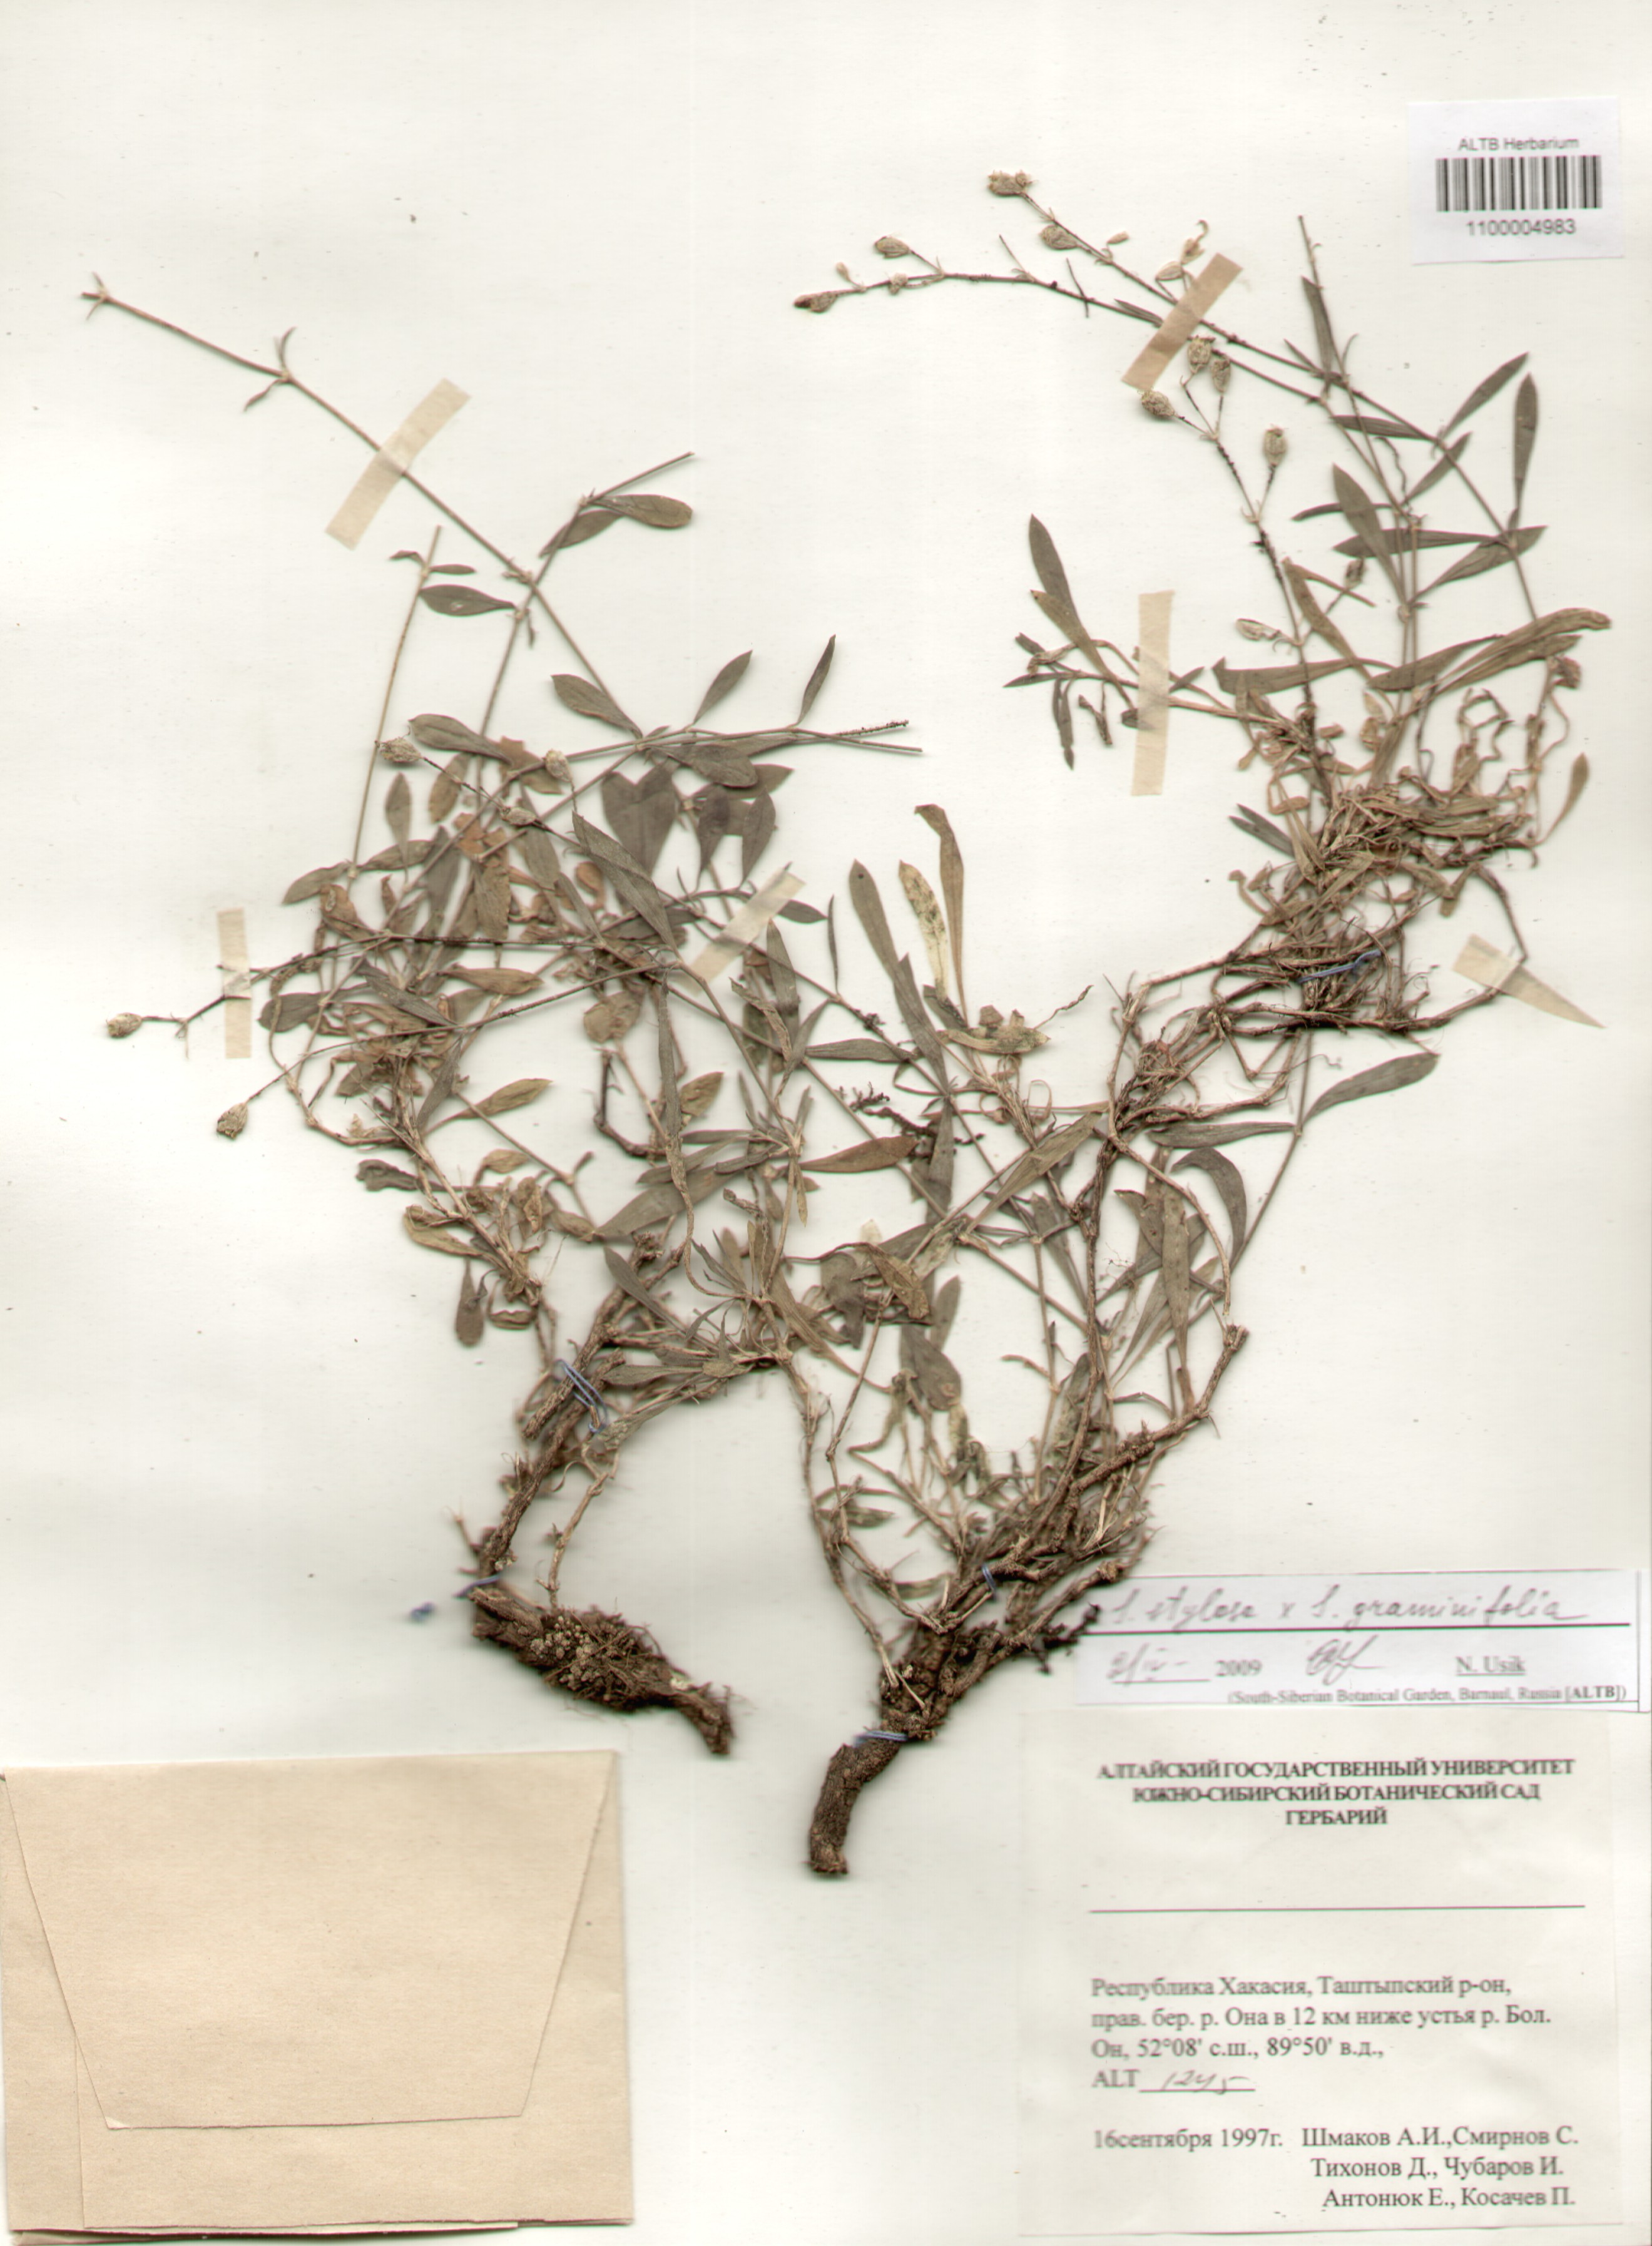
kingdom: Plantae
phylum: Tracheophyta
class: Magnoliopsida
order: Caryophyllales
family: Caryophyllaceae
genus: Silene
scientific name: Silene graminifolia
